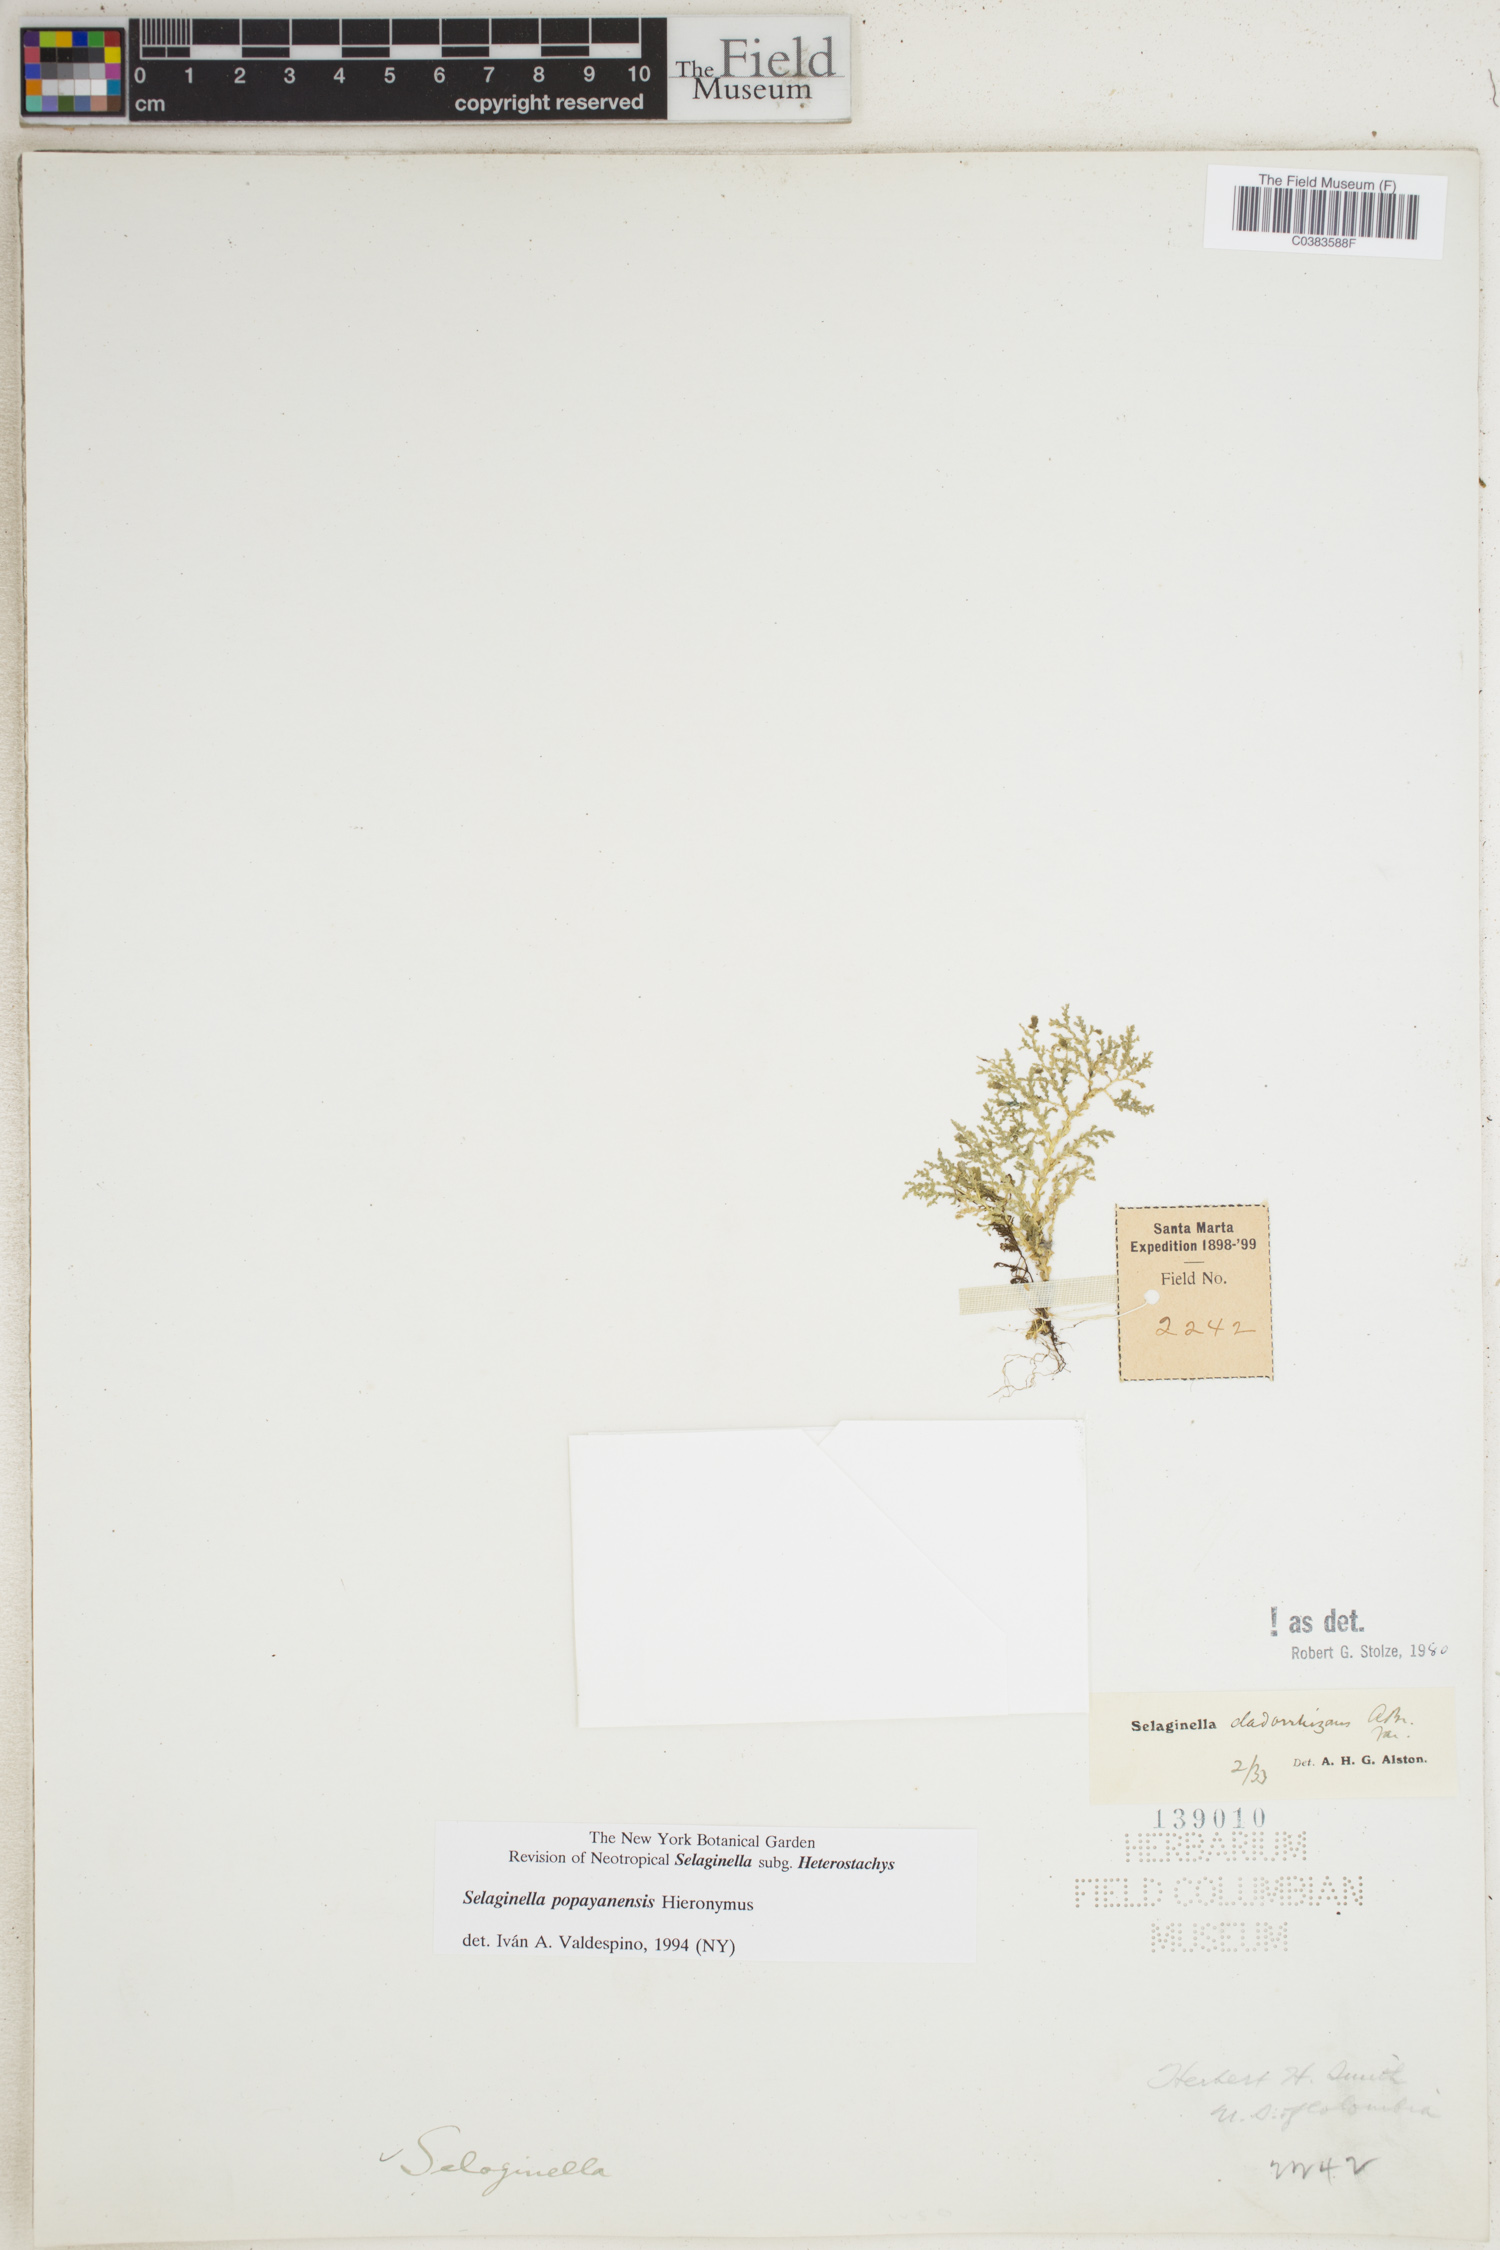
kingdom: Plantae
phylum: Tracheophyta
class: Lycopodiopsida
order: Selaginellales
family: Selaginellaceae
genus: Selaginella
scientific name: Selaginella popayanensis
